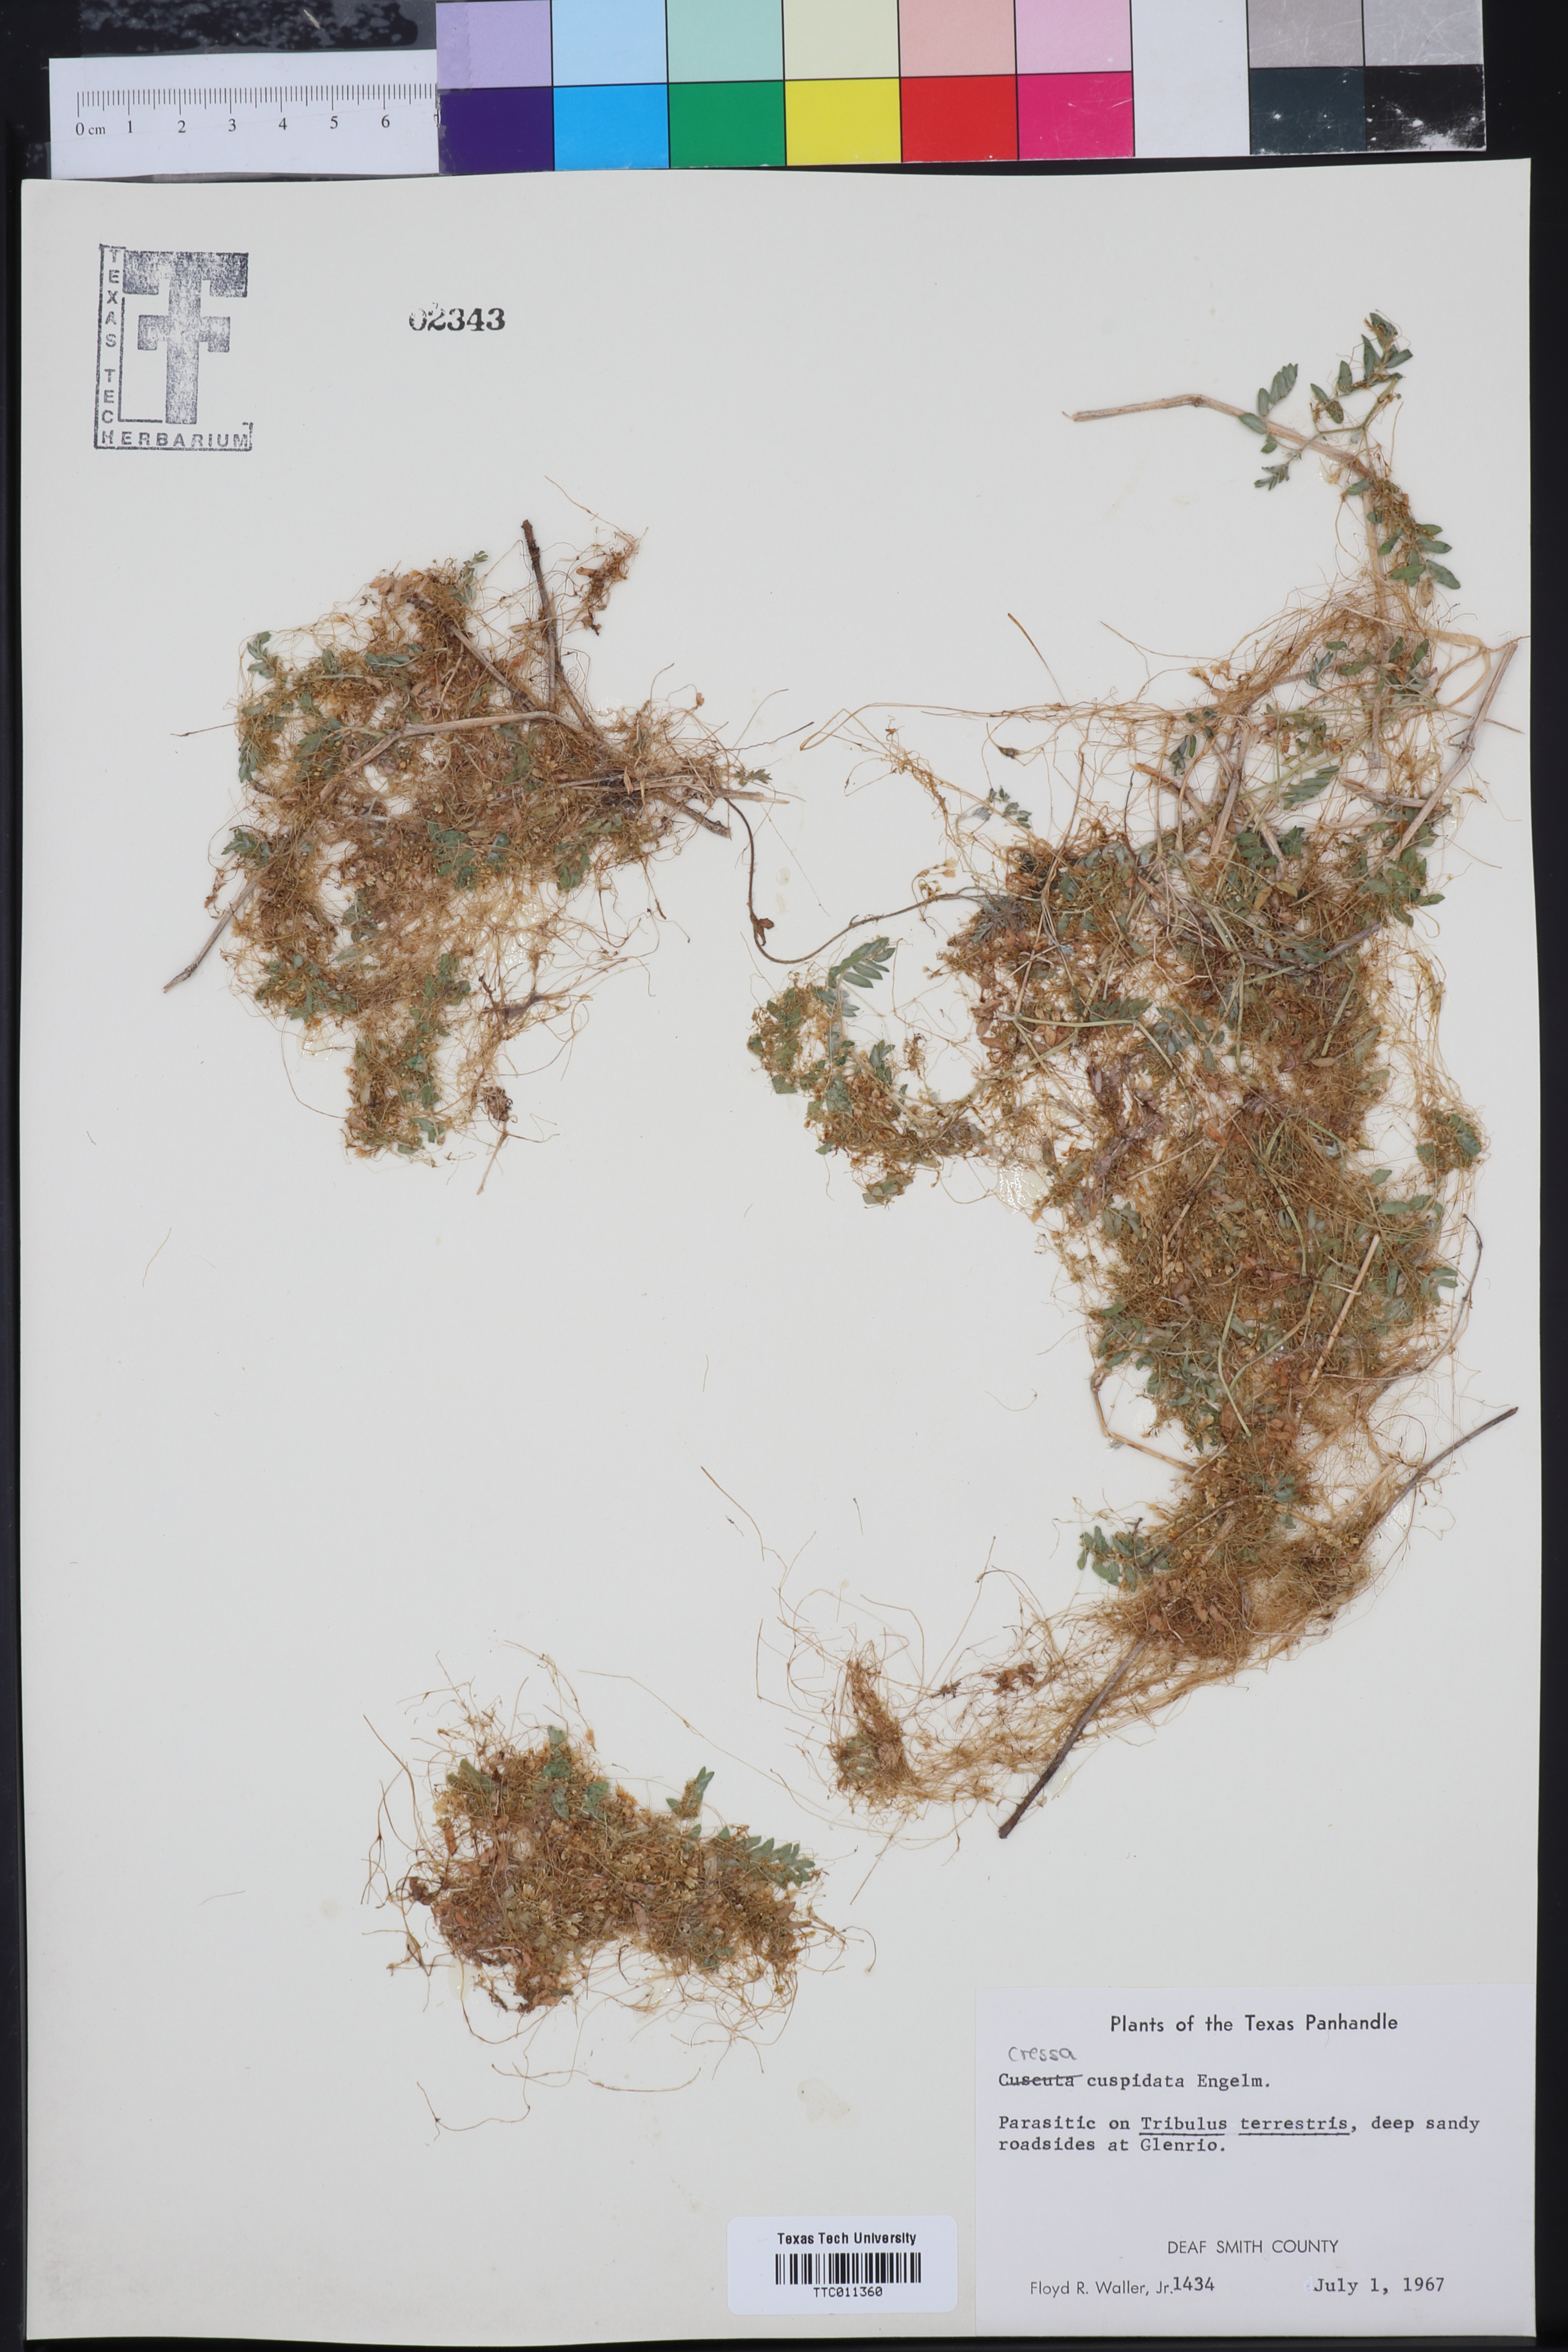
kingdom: Plantae
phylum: Tracheophyta
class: Magnoliopsida
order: Solanales
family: Convolvulaceae
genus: Cressa
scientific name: Cressa
